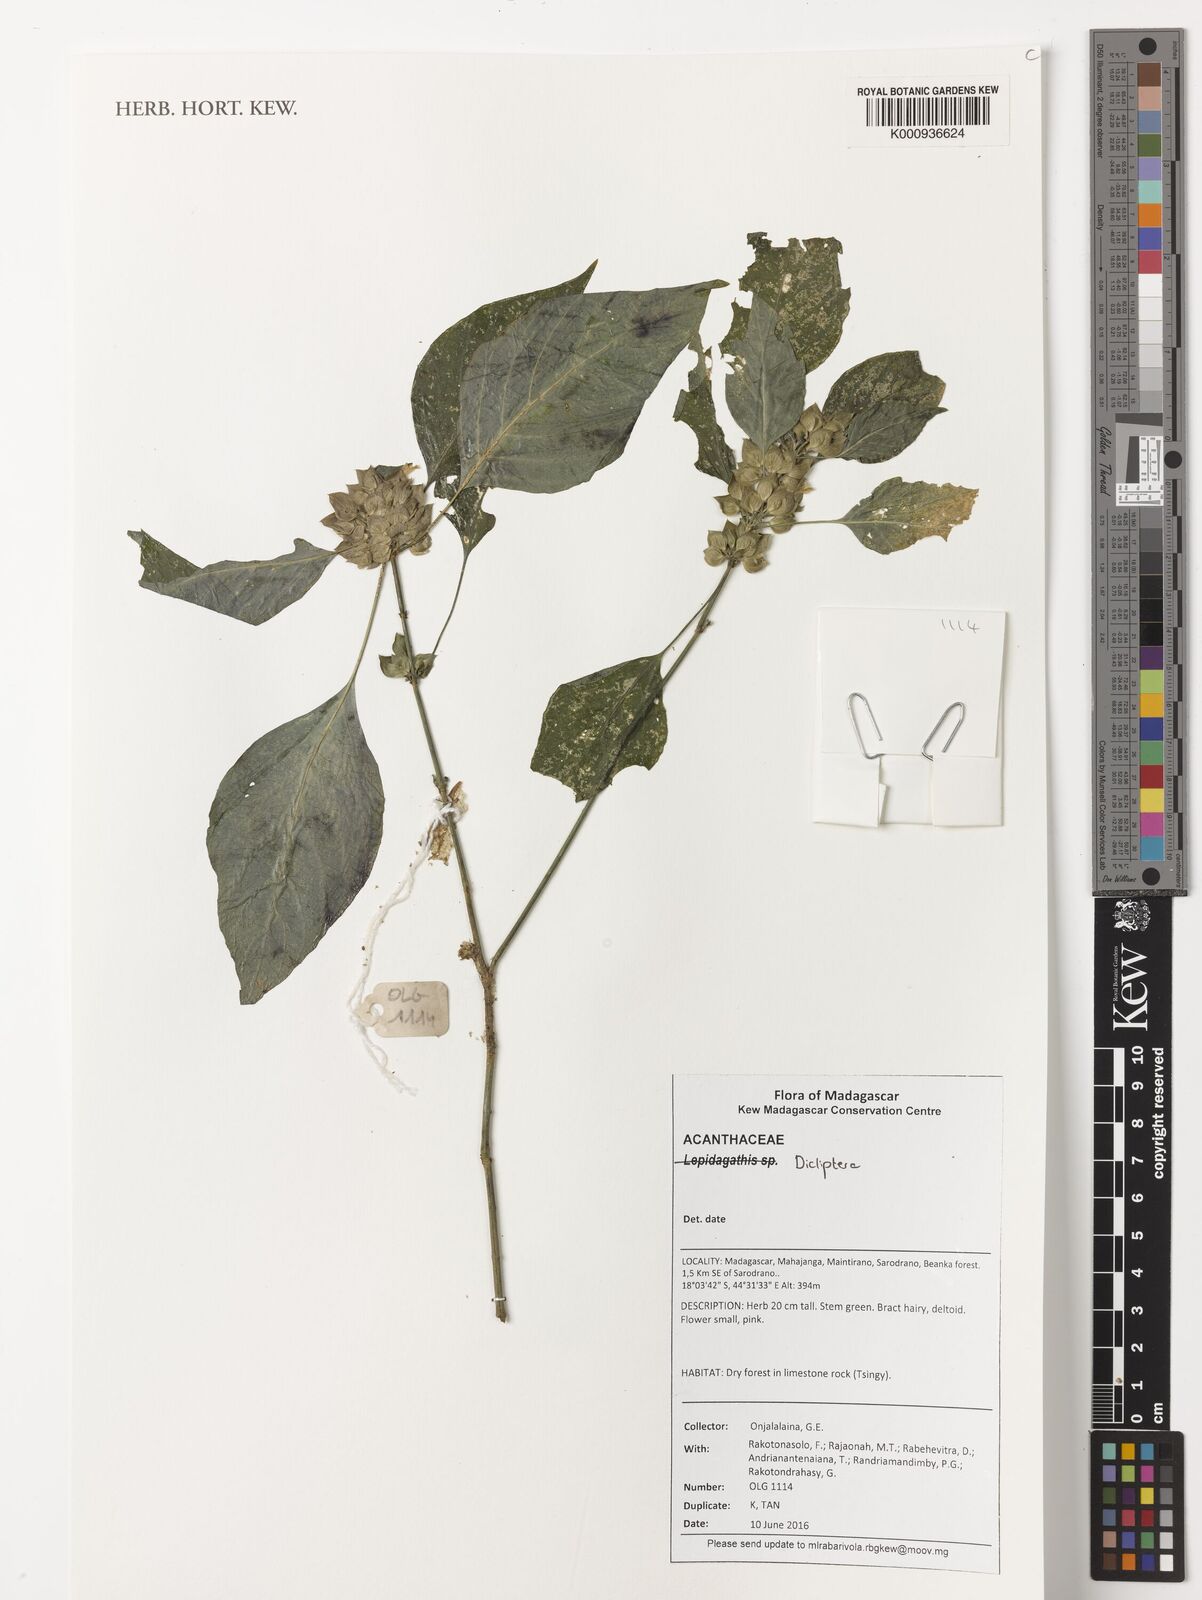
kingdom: Plantae
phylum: Tracheophyta
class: Magnoliopsida
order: Lamiales
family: Acanthaceae
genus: Dicliptera
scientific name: Dicliptera
